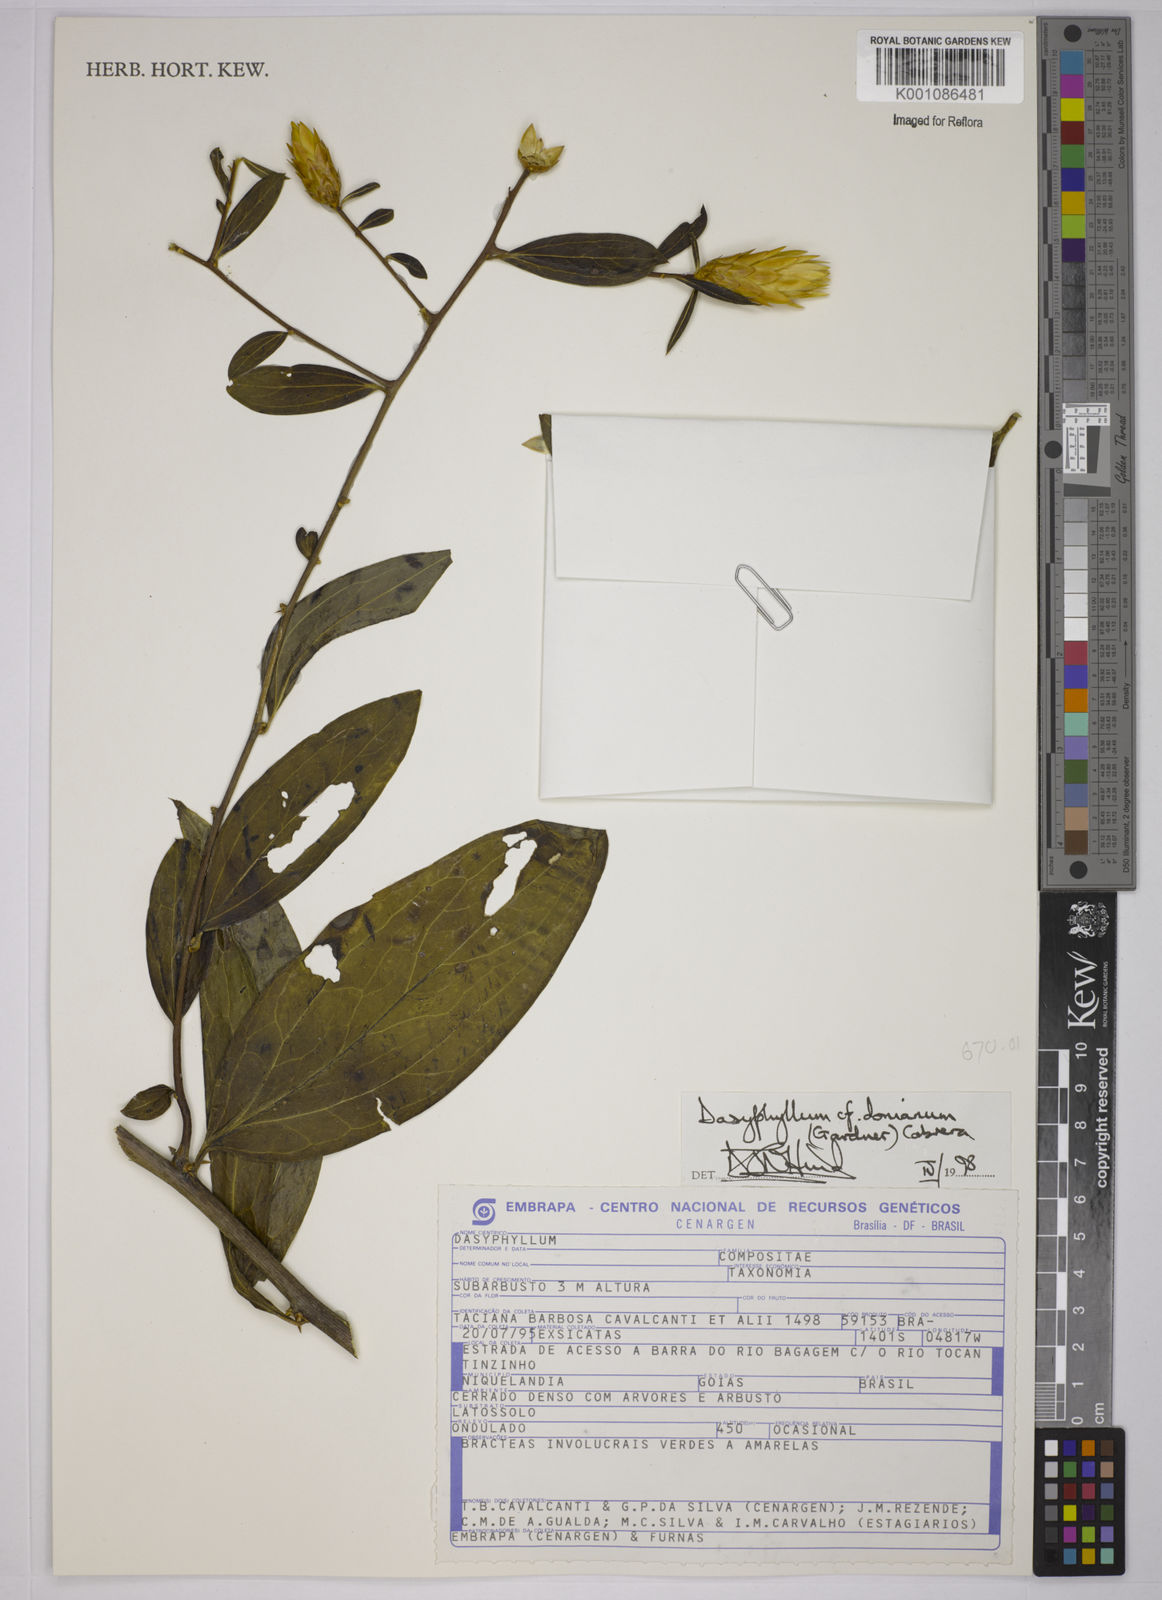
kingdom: Plantae
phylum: Tracheophyta
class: Magnoliopsida
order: Asterales
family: Asteraceae
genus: Dasyphyllum
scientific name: Dasyphyllum donianum
